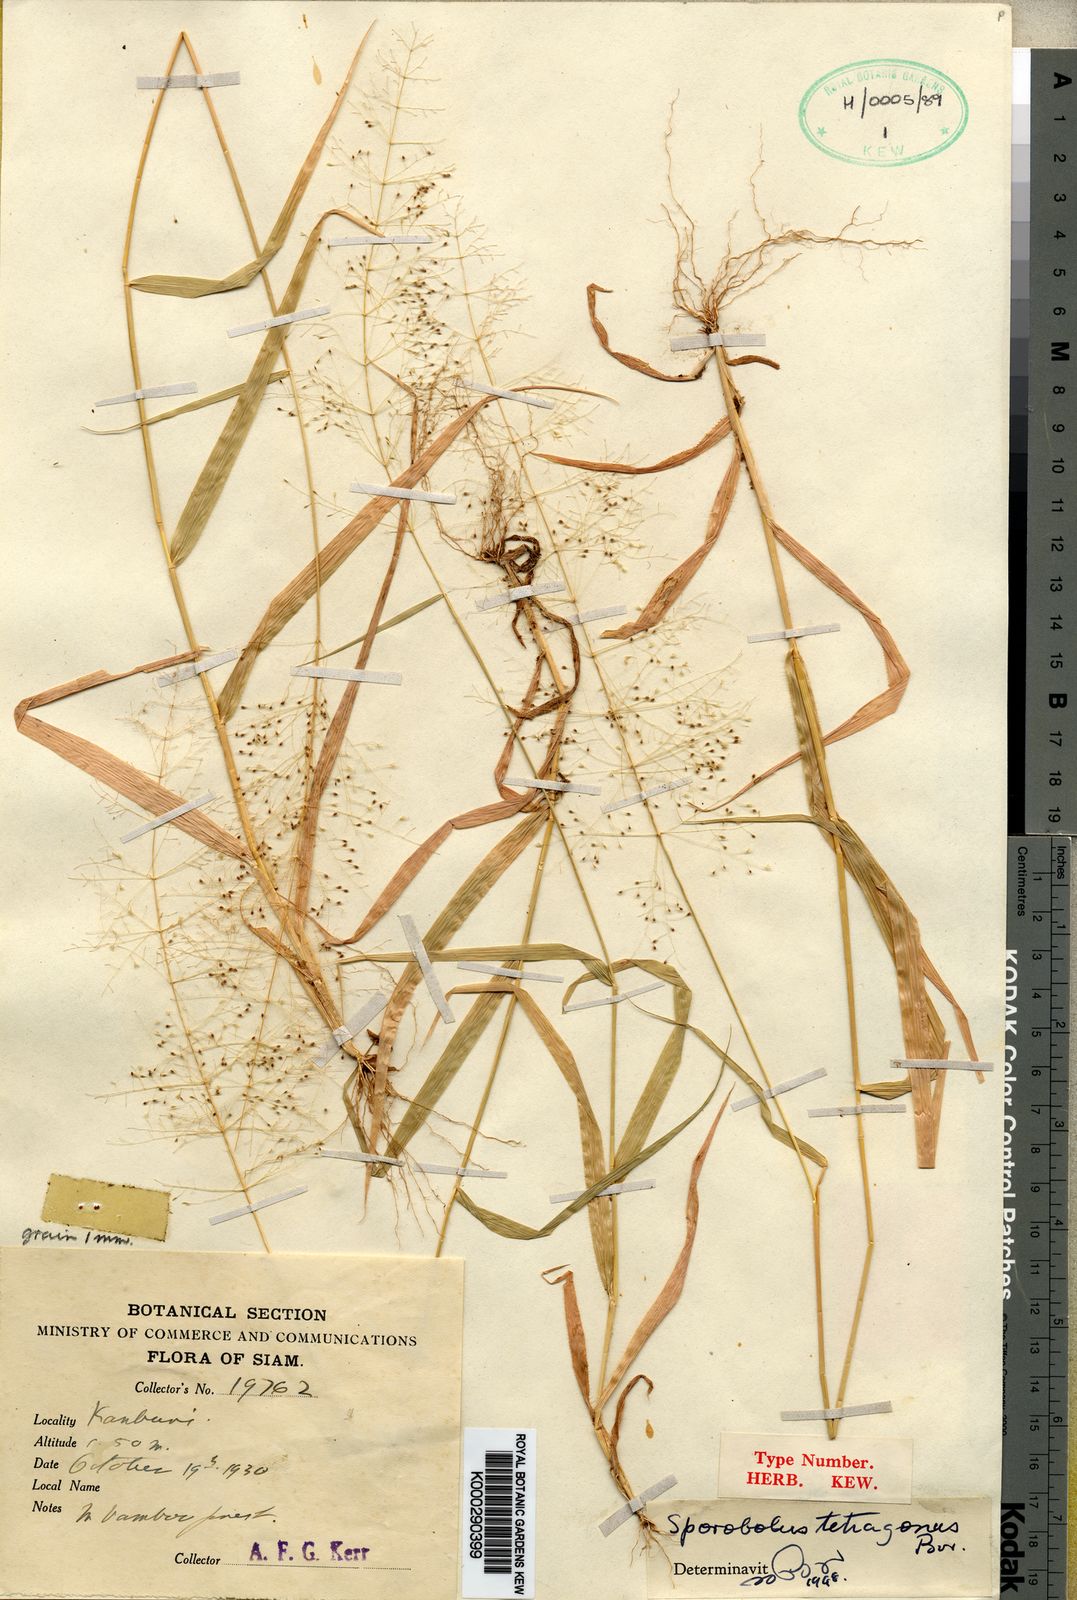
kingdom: Plantae
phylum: Tracheophyta
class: Liliopsida
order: Poales
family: Poaceae
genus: Sporobolus
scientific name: Sporobolus tetragonus
